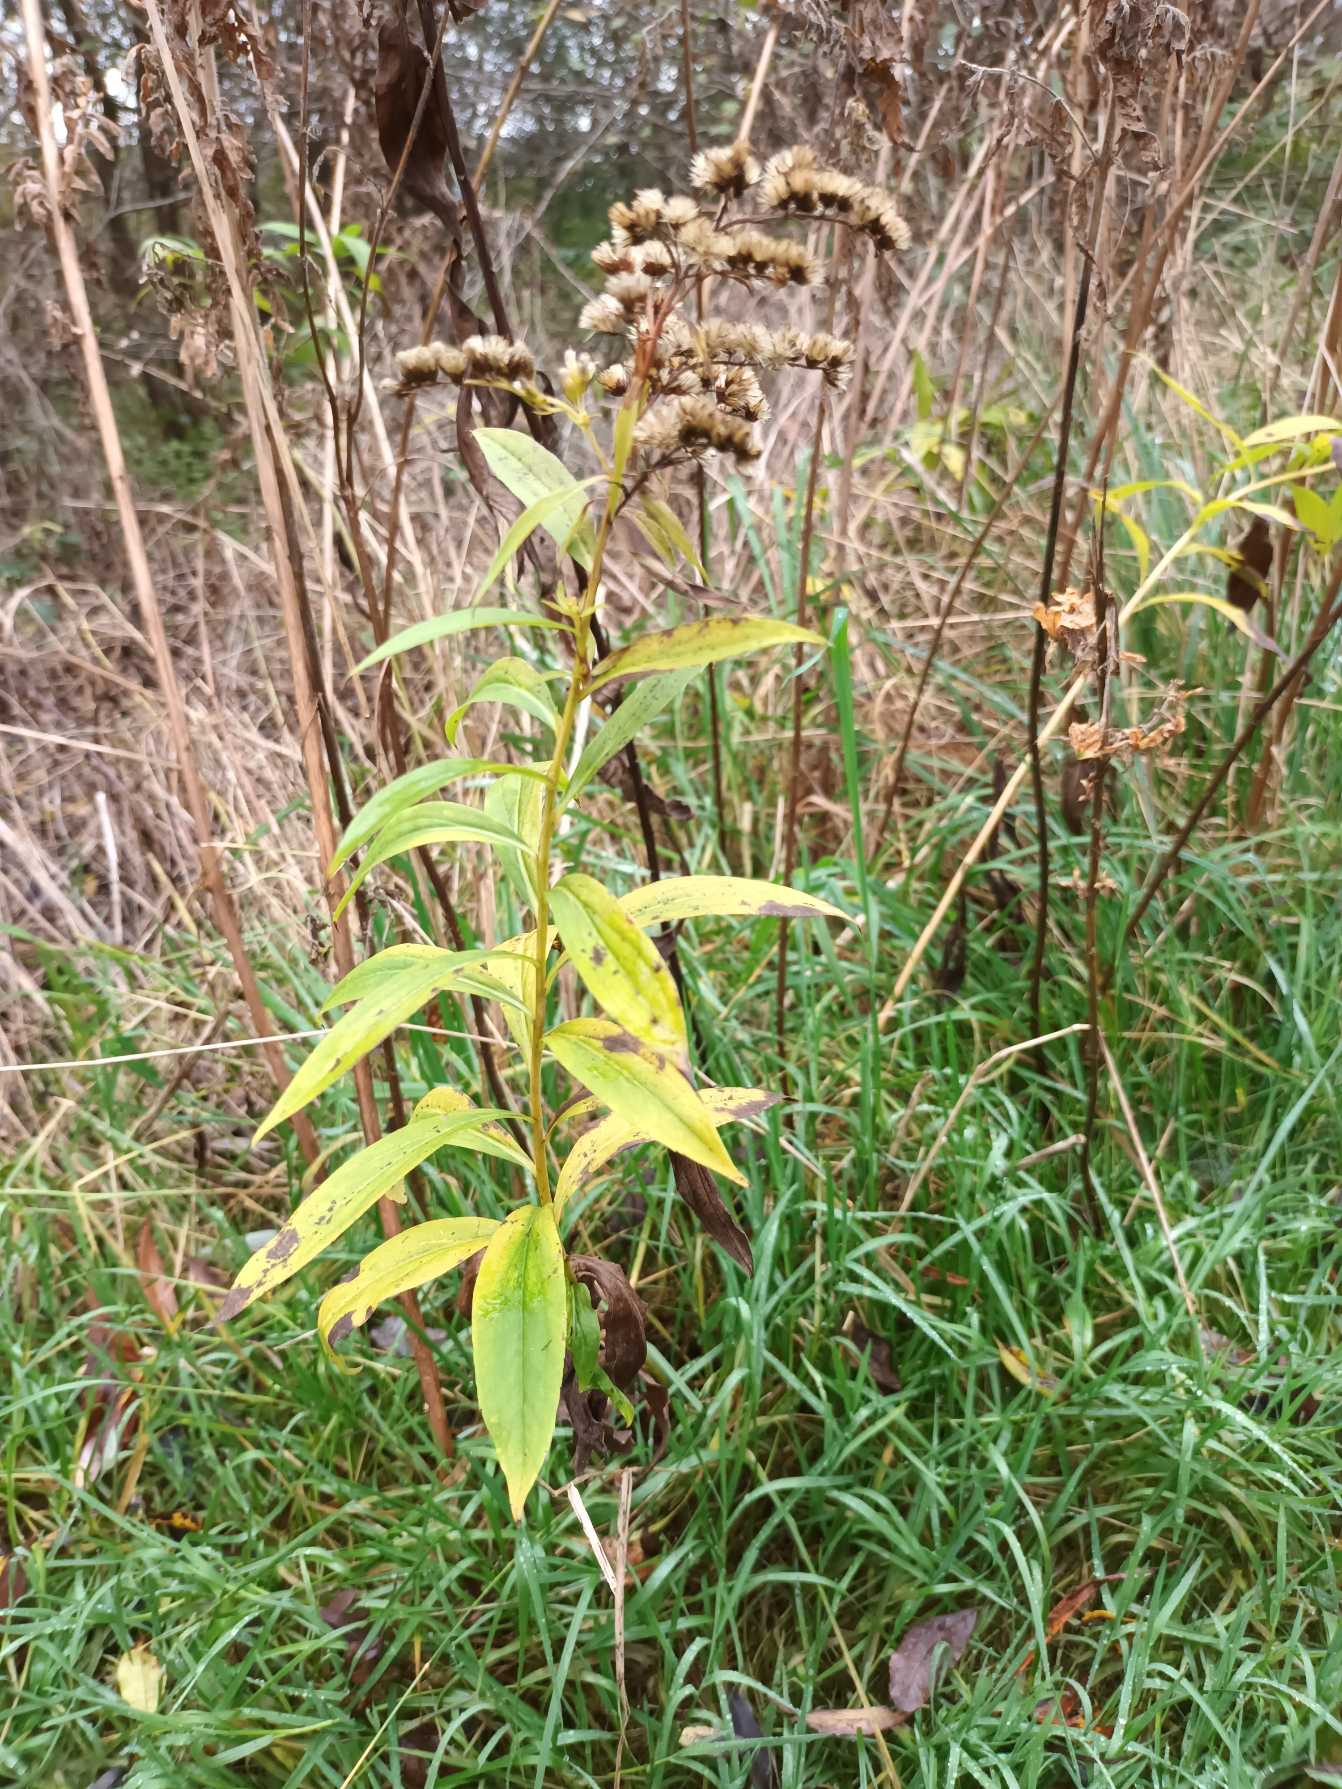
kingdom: Plantae
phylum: Tracheophyta
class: Magnoliopsida
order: Asterales
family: Asteraceae
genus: Solidago
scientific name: Solidago gigantea
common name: Sildig gyldenris
